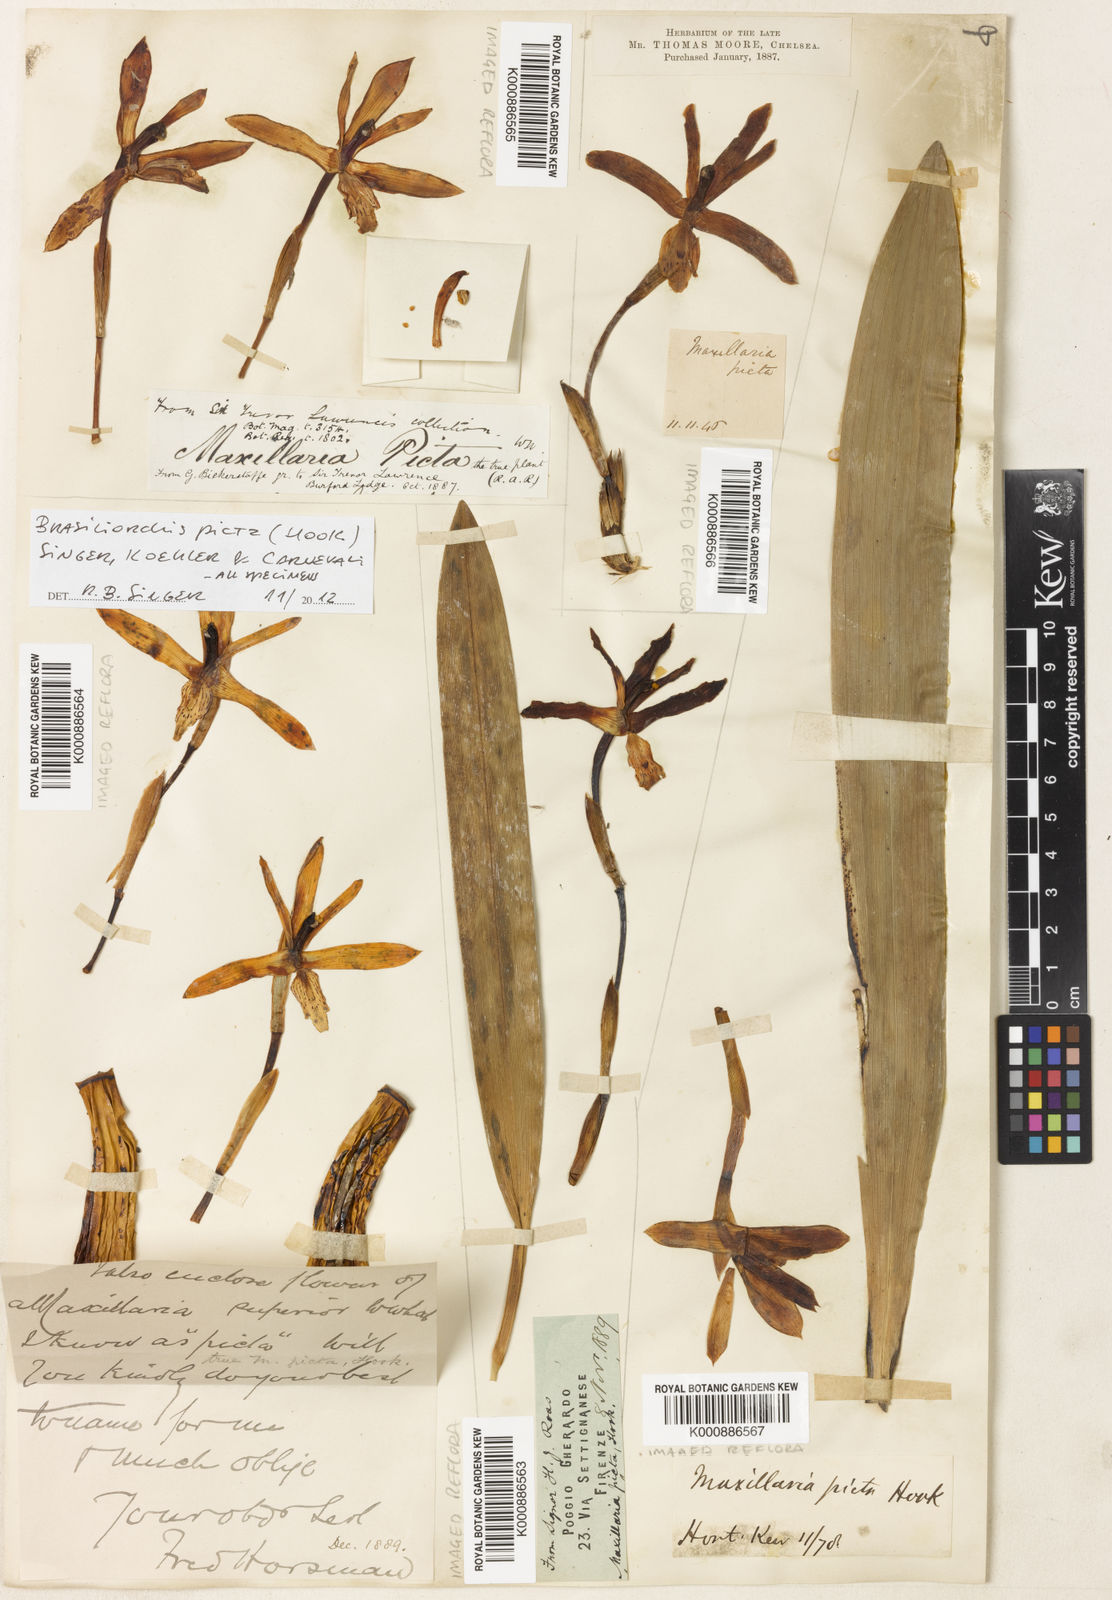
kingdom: Plantae
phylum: Tracheophyta
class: Liliopsida
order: Asparagales
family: Orchidaceae
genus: Maxillaria
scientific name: Maxillaria
